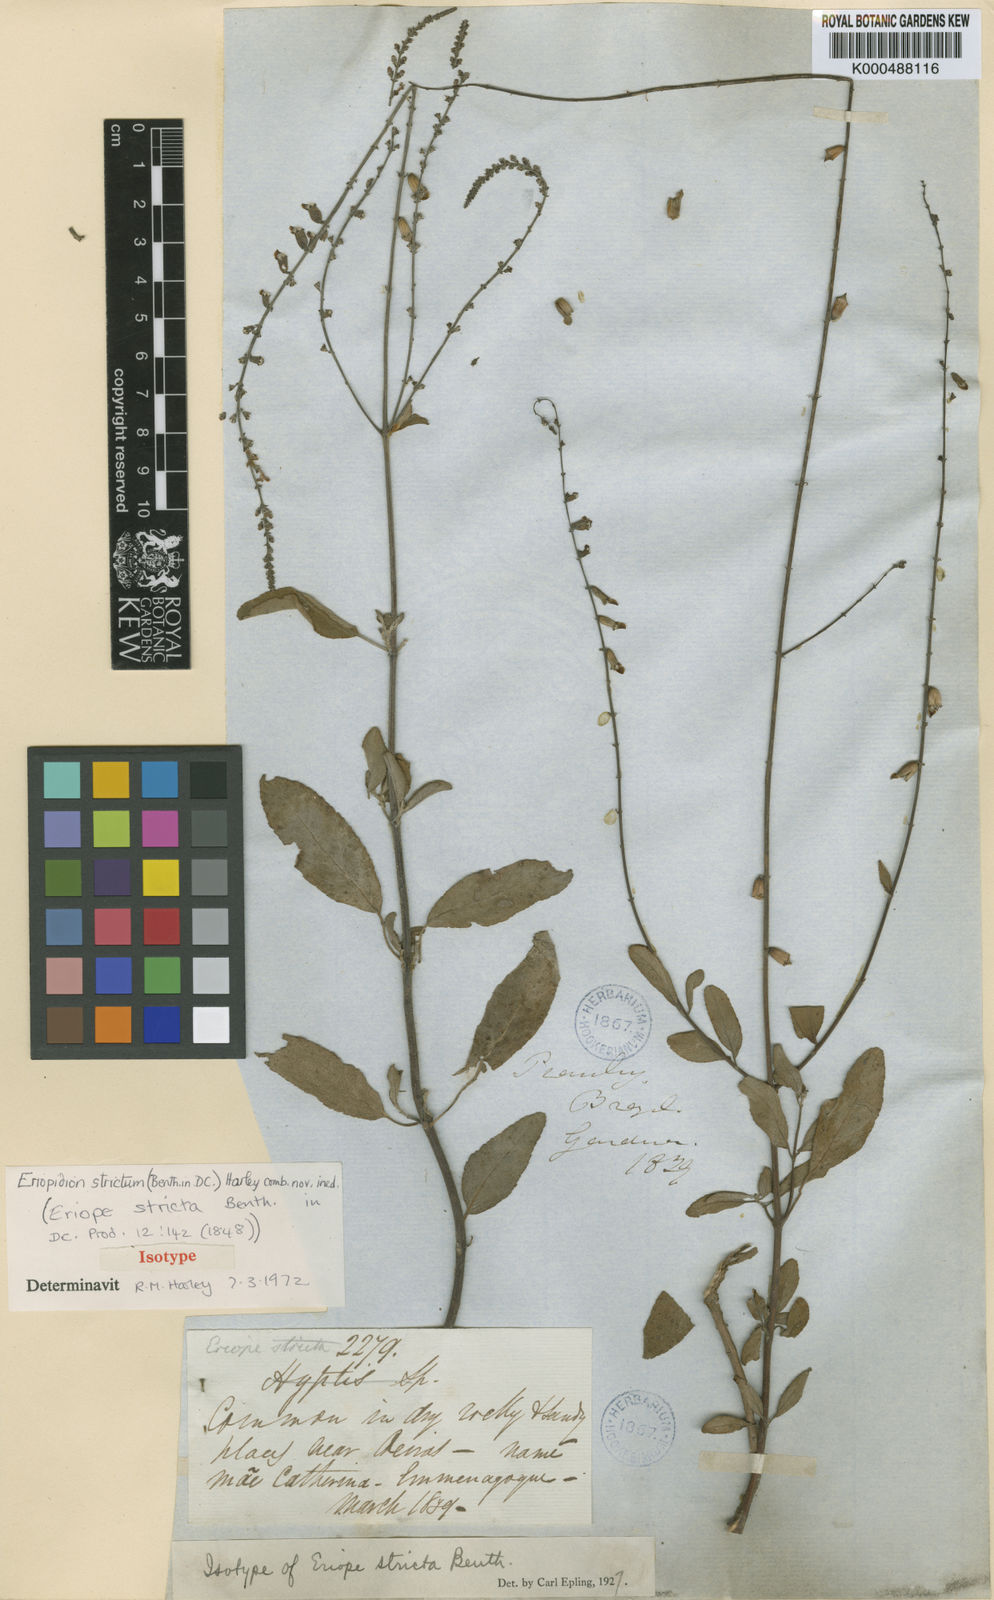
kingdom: Plantae
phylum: Tracheophyta
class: Magnoliopsida
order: Lamiales
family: Lamiaceae
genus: Eriopidion
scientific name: Eriopidion strictum
